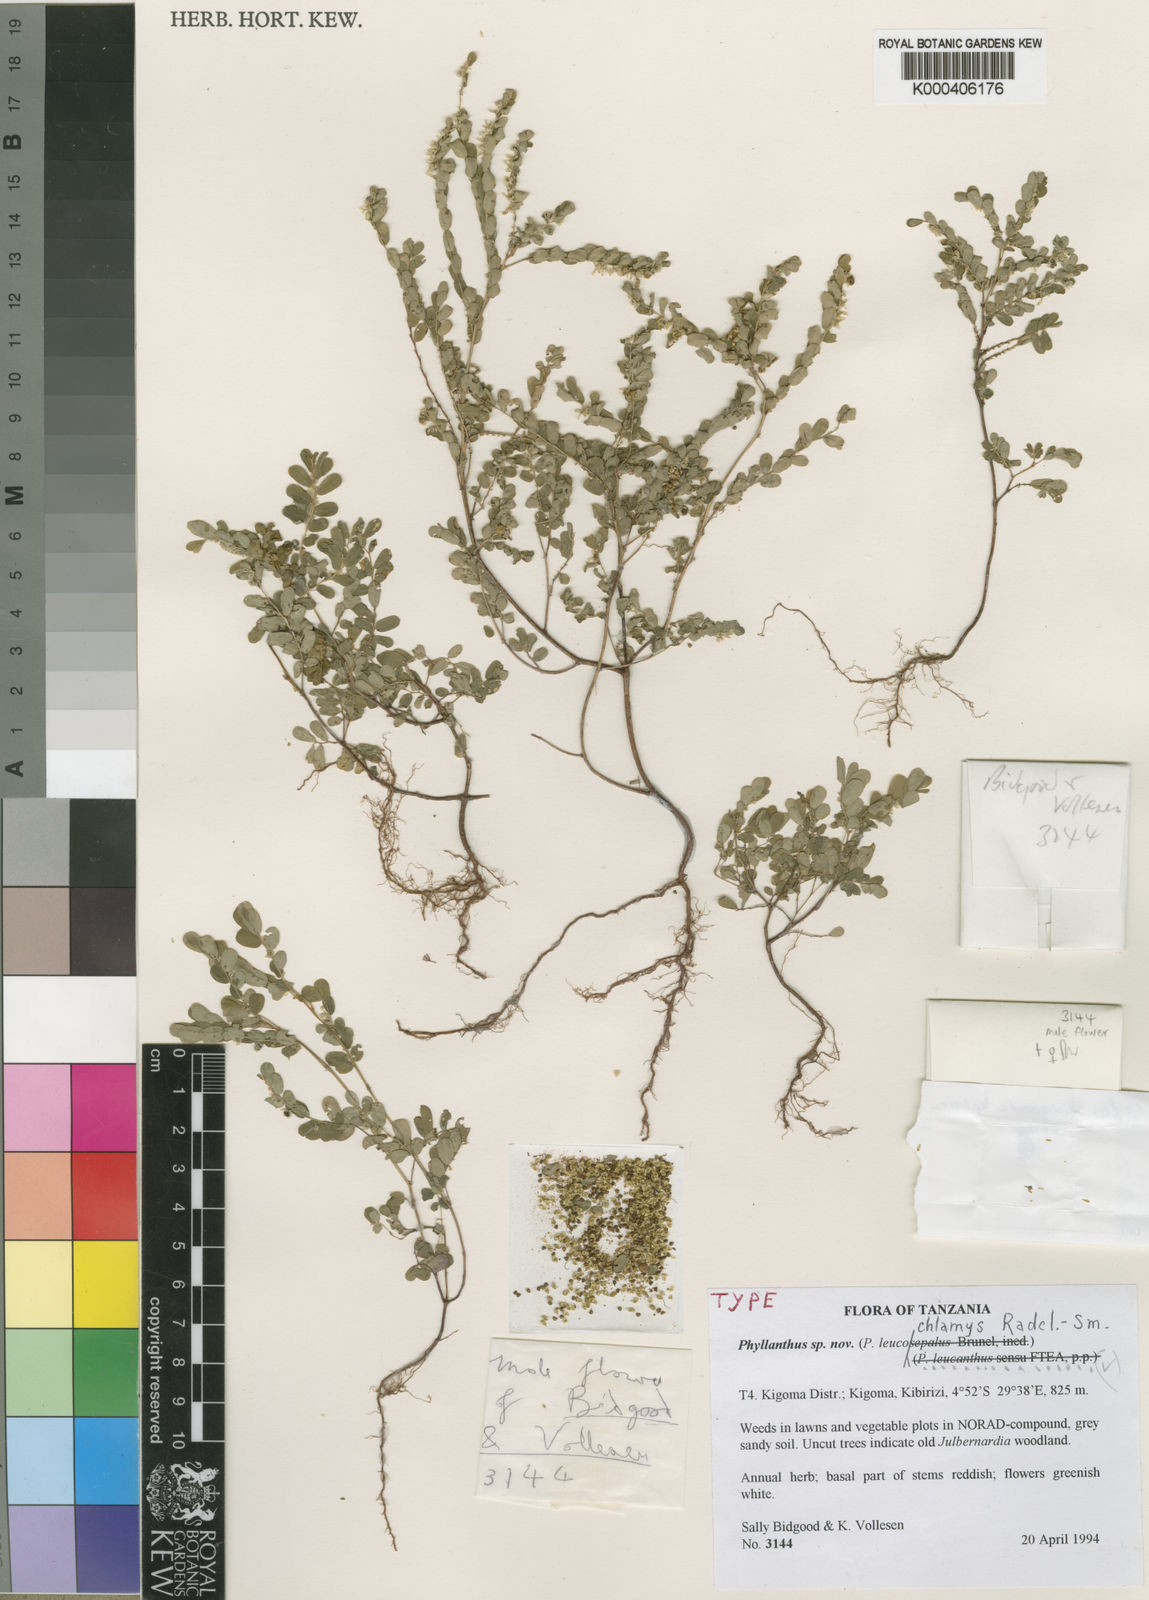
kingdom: Plantae
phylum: Tracheophyta
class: Magnoliopsida
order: Malpighiales
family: Phyllanthaceae
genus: Phyllanthus
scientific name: Phyllanthus leucochlamys
